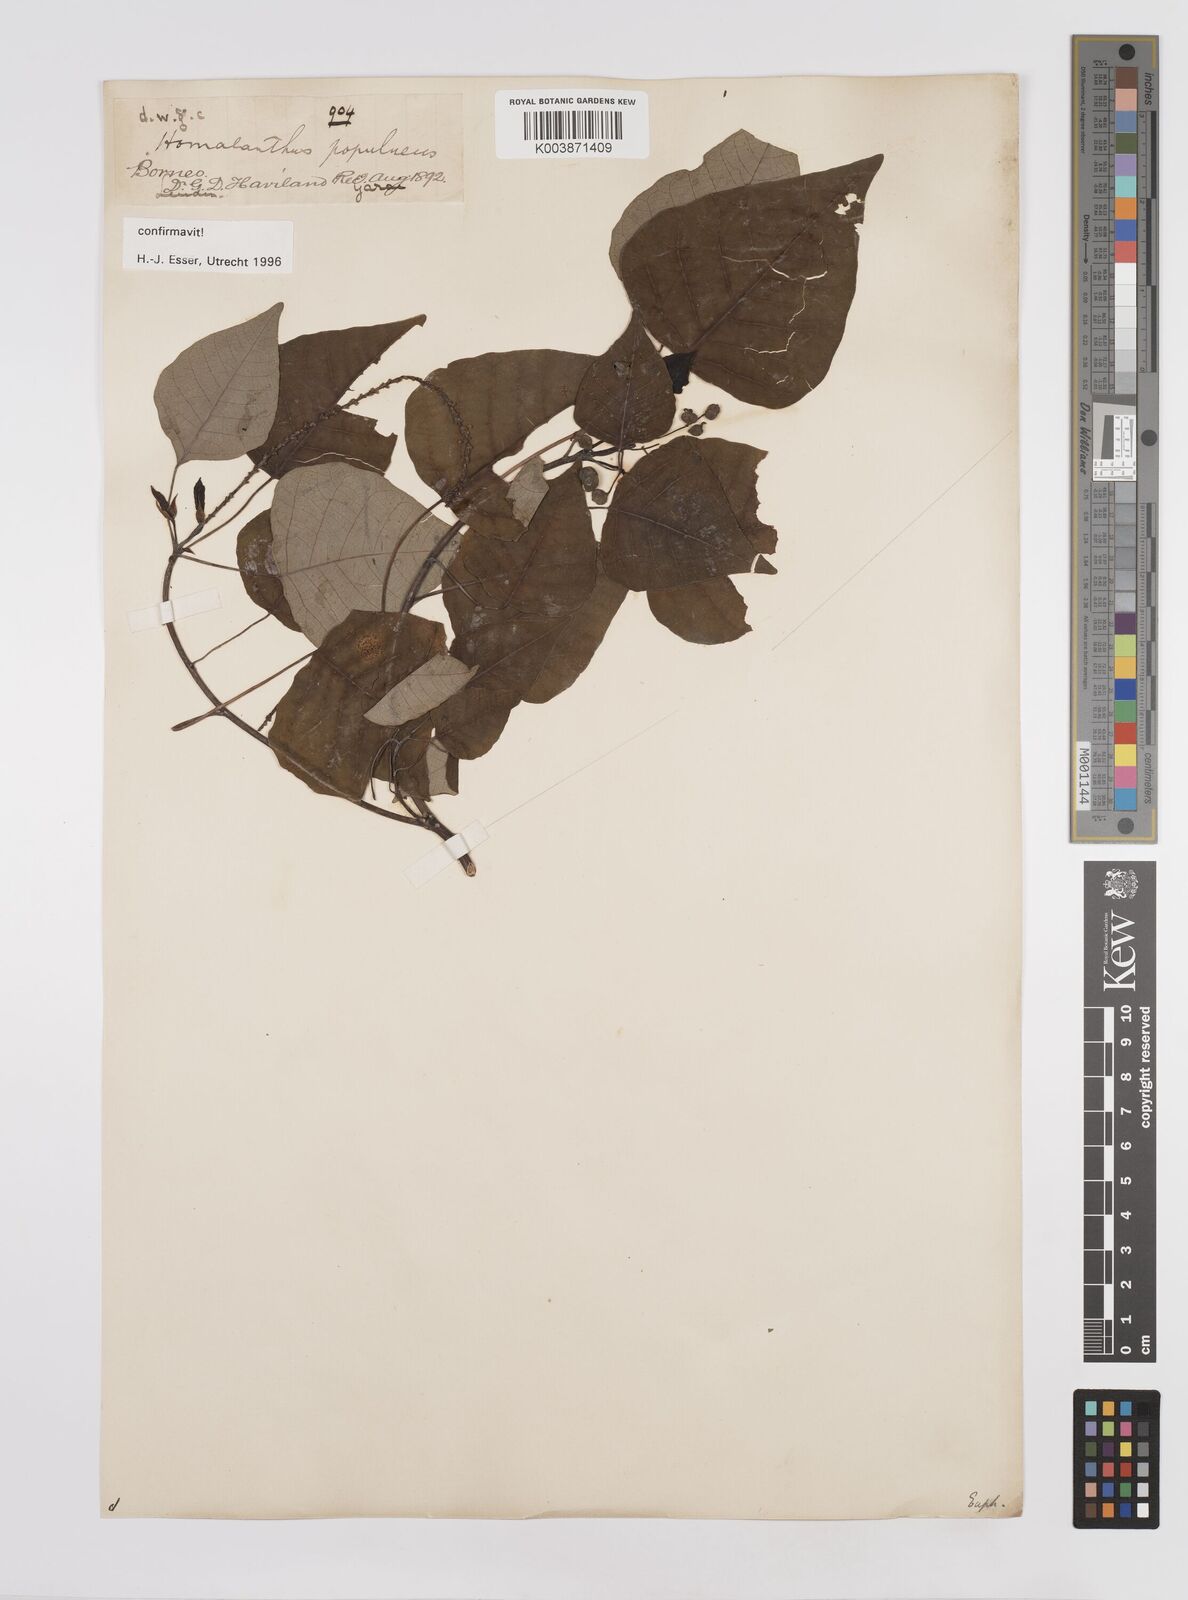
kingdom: Plantae
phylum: Tracheophyta
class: Magnoliopsida
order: Malpighiales
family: Euphorbiaceae
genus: Homalanthus
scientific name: Homalanthus populneus
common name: Spurge
